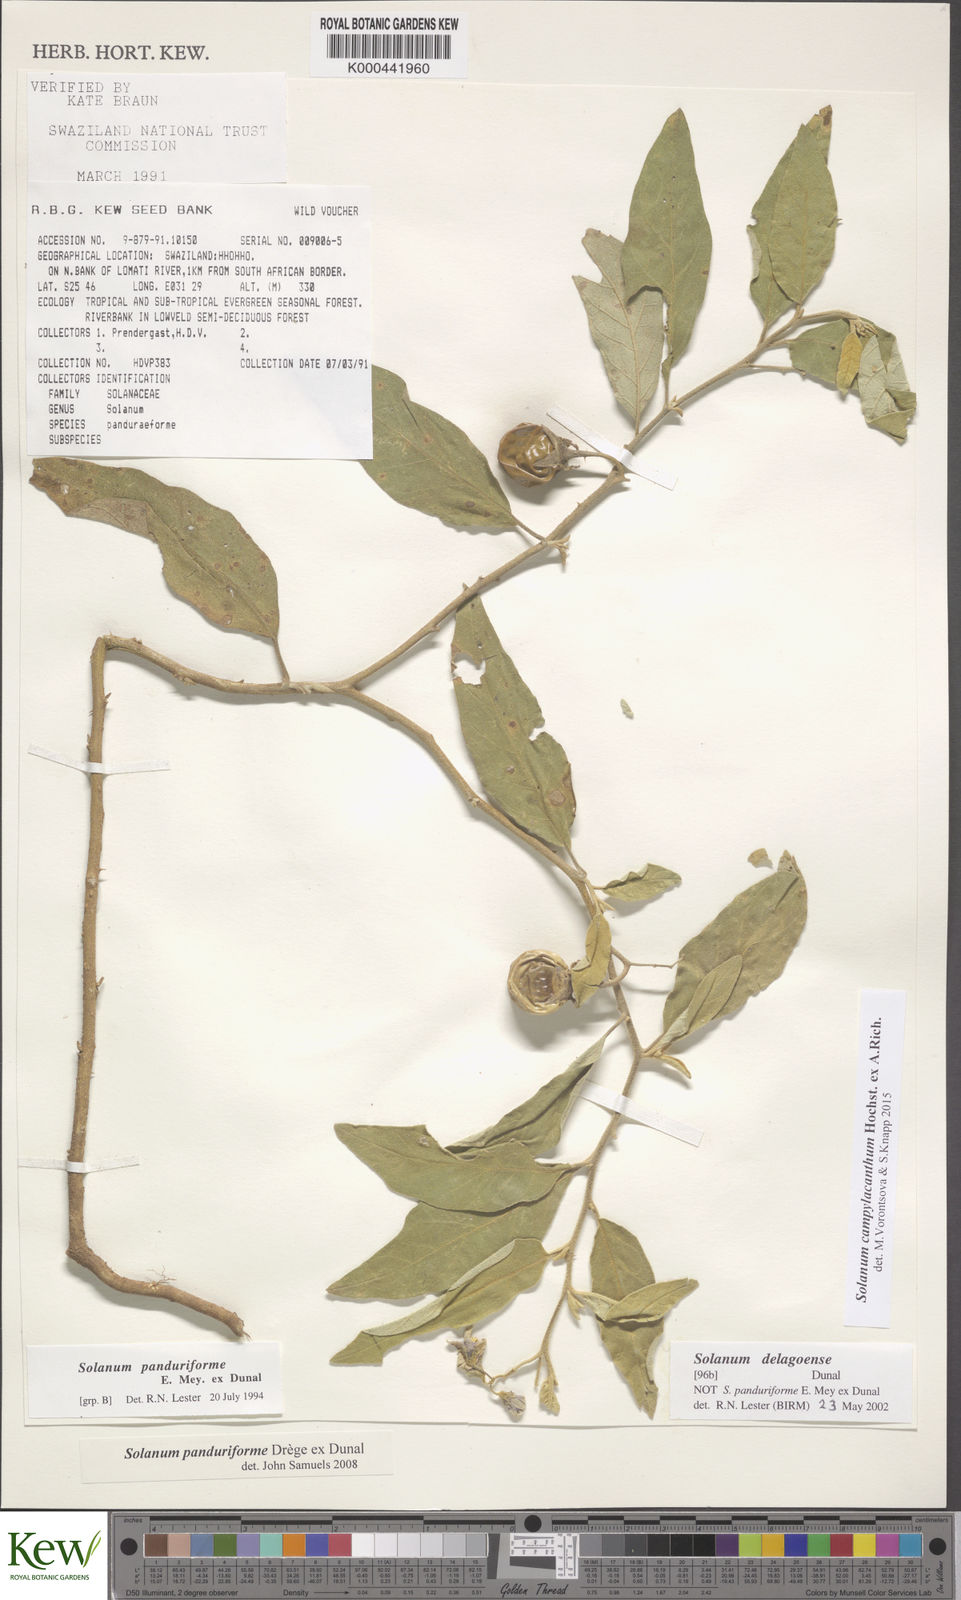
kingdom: Plantae
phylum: Tracheophyta
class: Magnoliopsida
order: Solanales
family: Solanaceae
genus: Solanum
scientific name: Solanum campylacanthum
